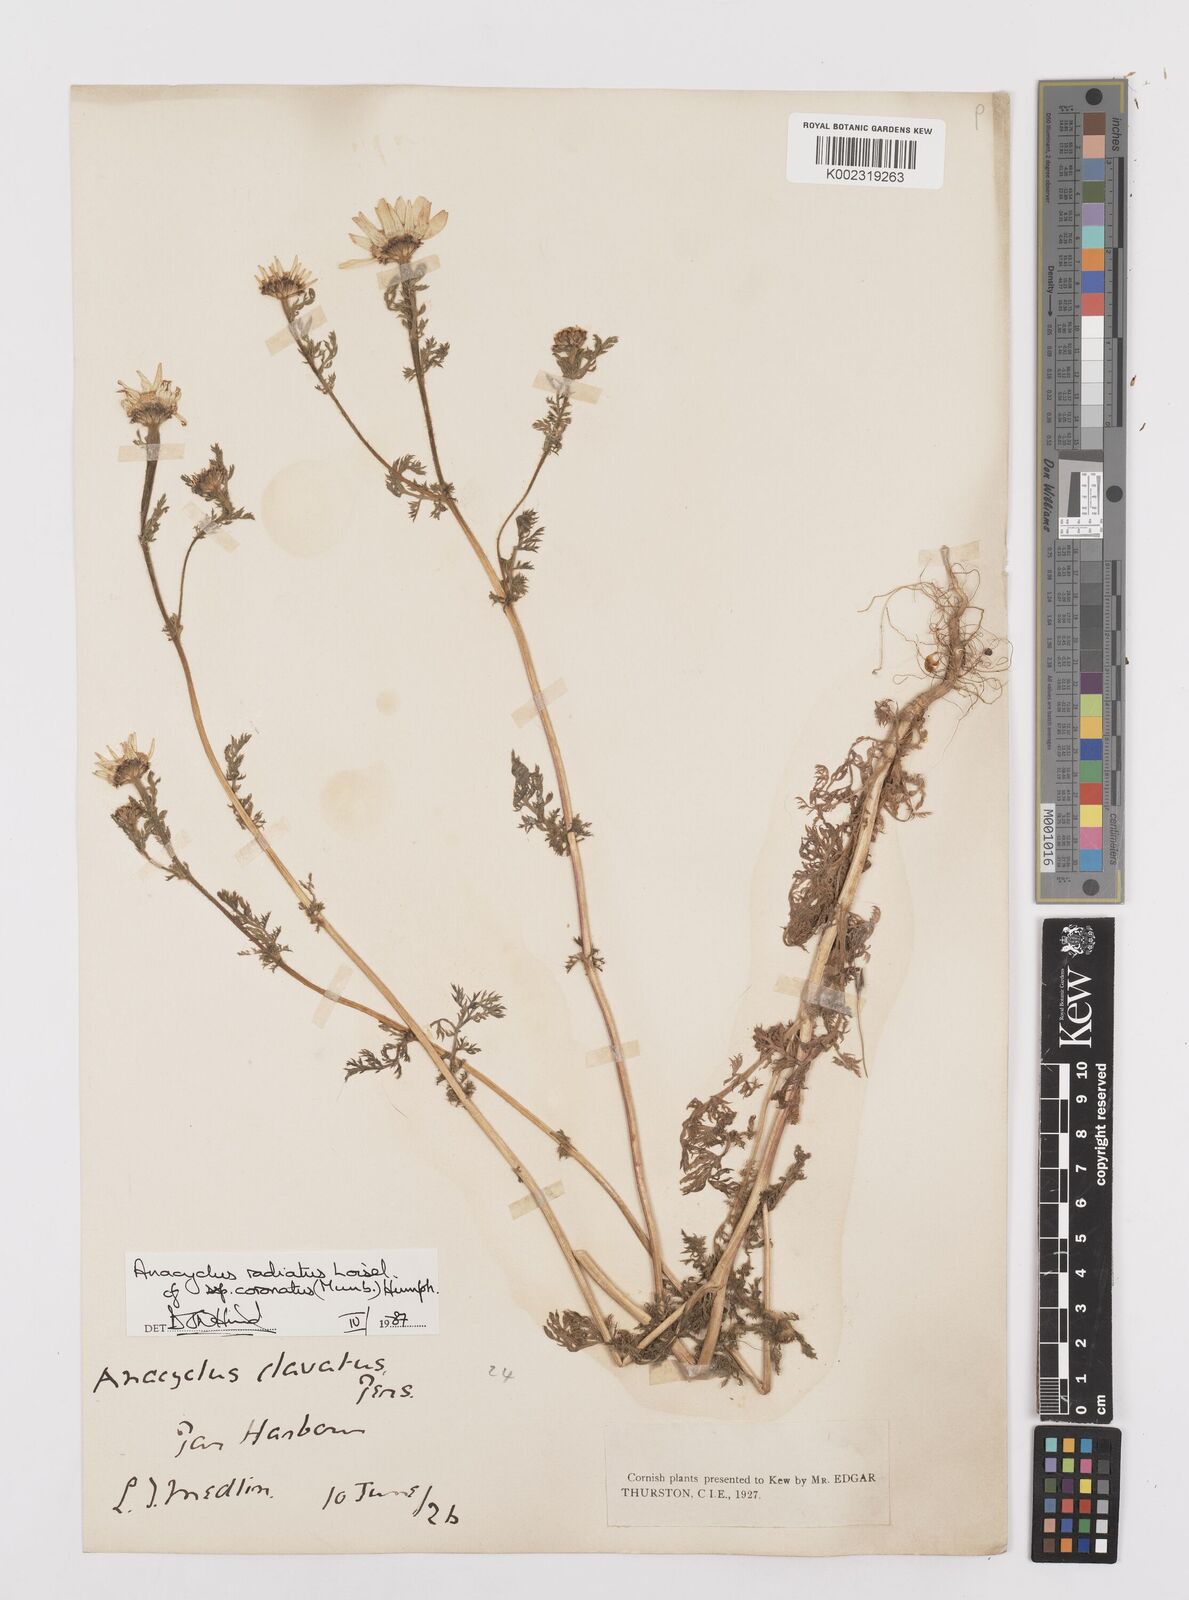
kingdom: Plantae
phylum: Tracheophyta
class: Magnoliopsida
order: Asterales
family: Asteraceae
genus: Anacyclus
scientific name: Anacyclus radiatus
